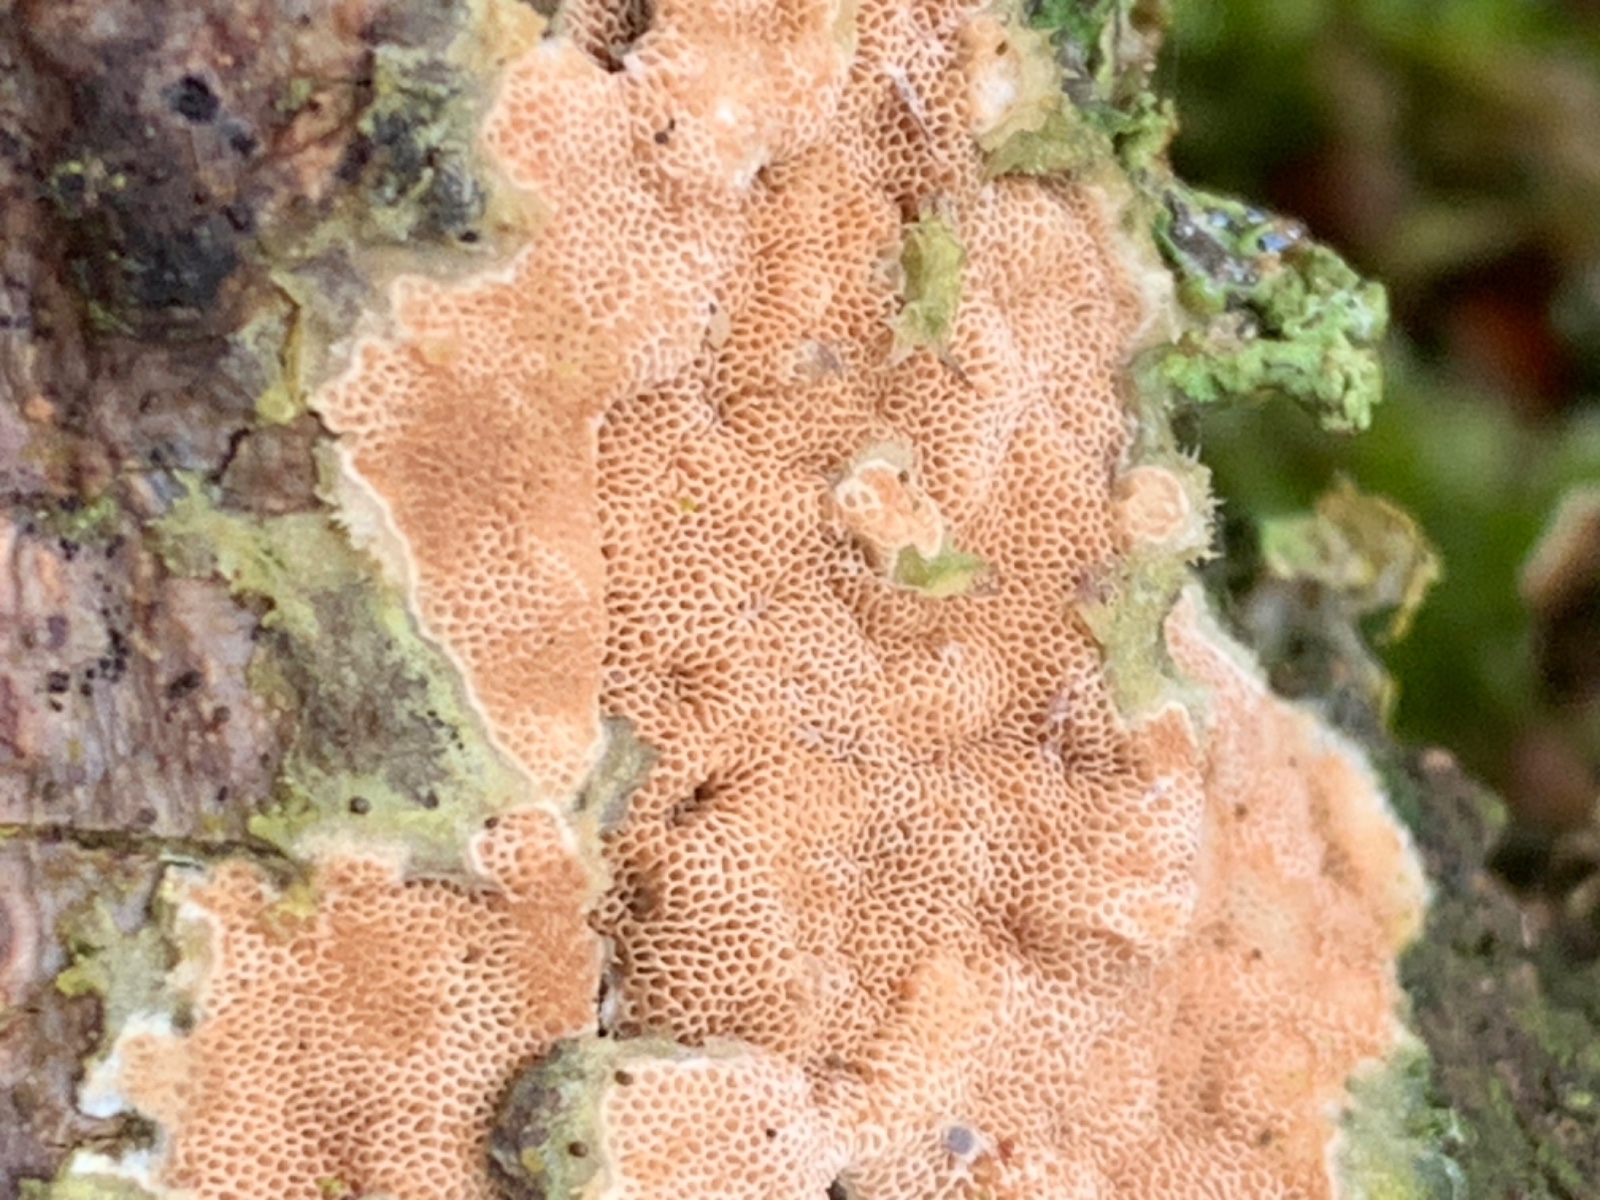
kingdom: Fungi
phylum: Basidiomycota
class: Agaricomycetes
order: Polyporales
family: Irpicaceae
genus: Meruliopsis
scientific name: Meruliopsis taxicola
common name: purpurbrun foldporesvamp
